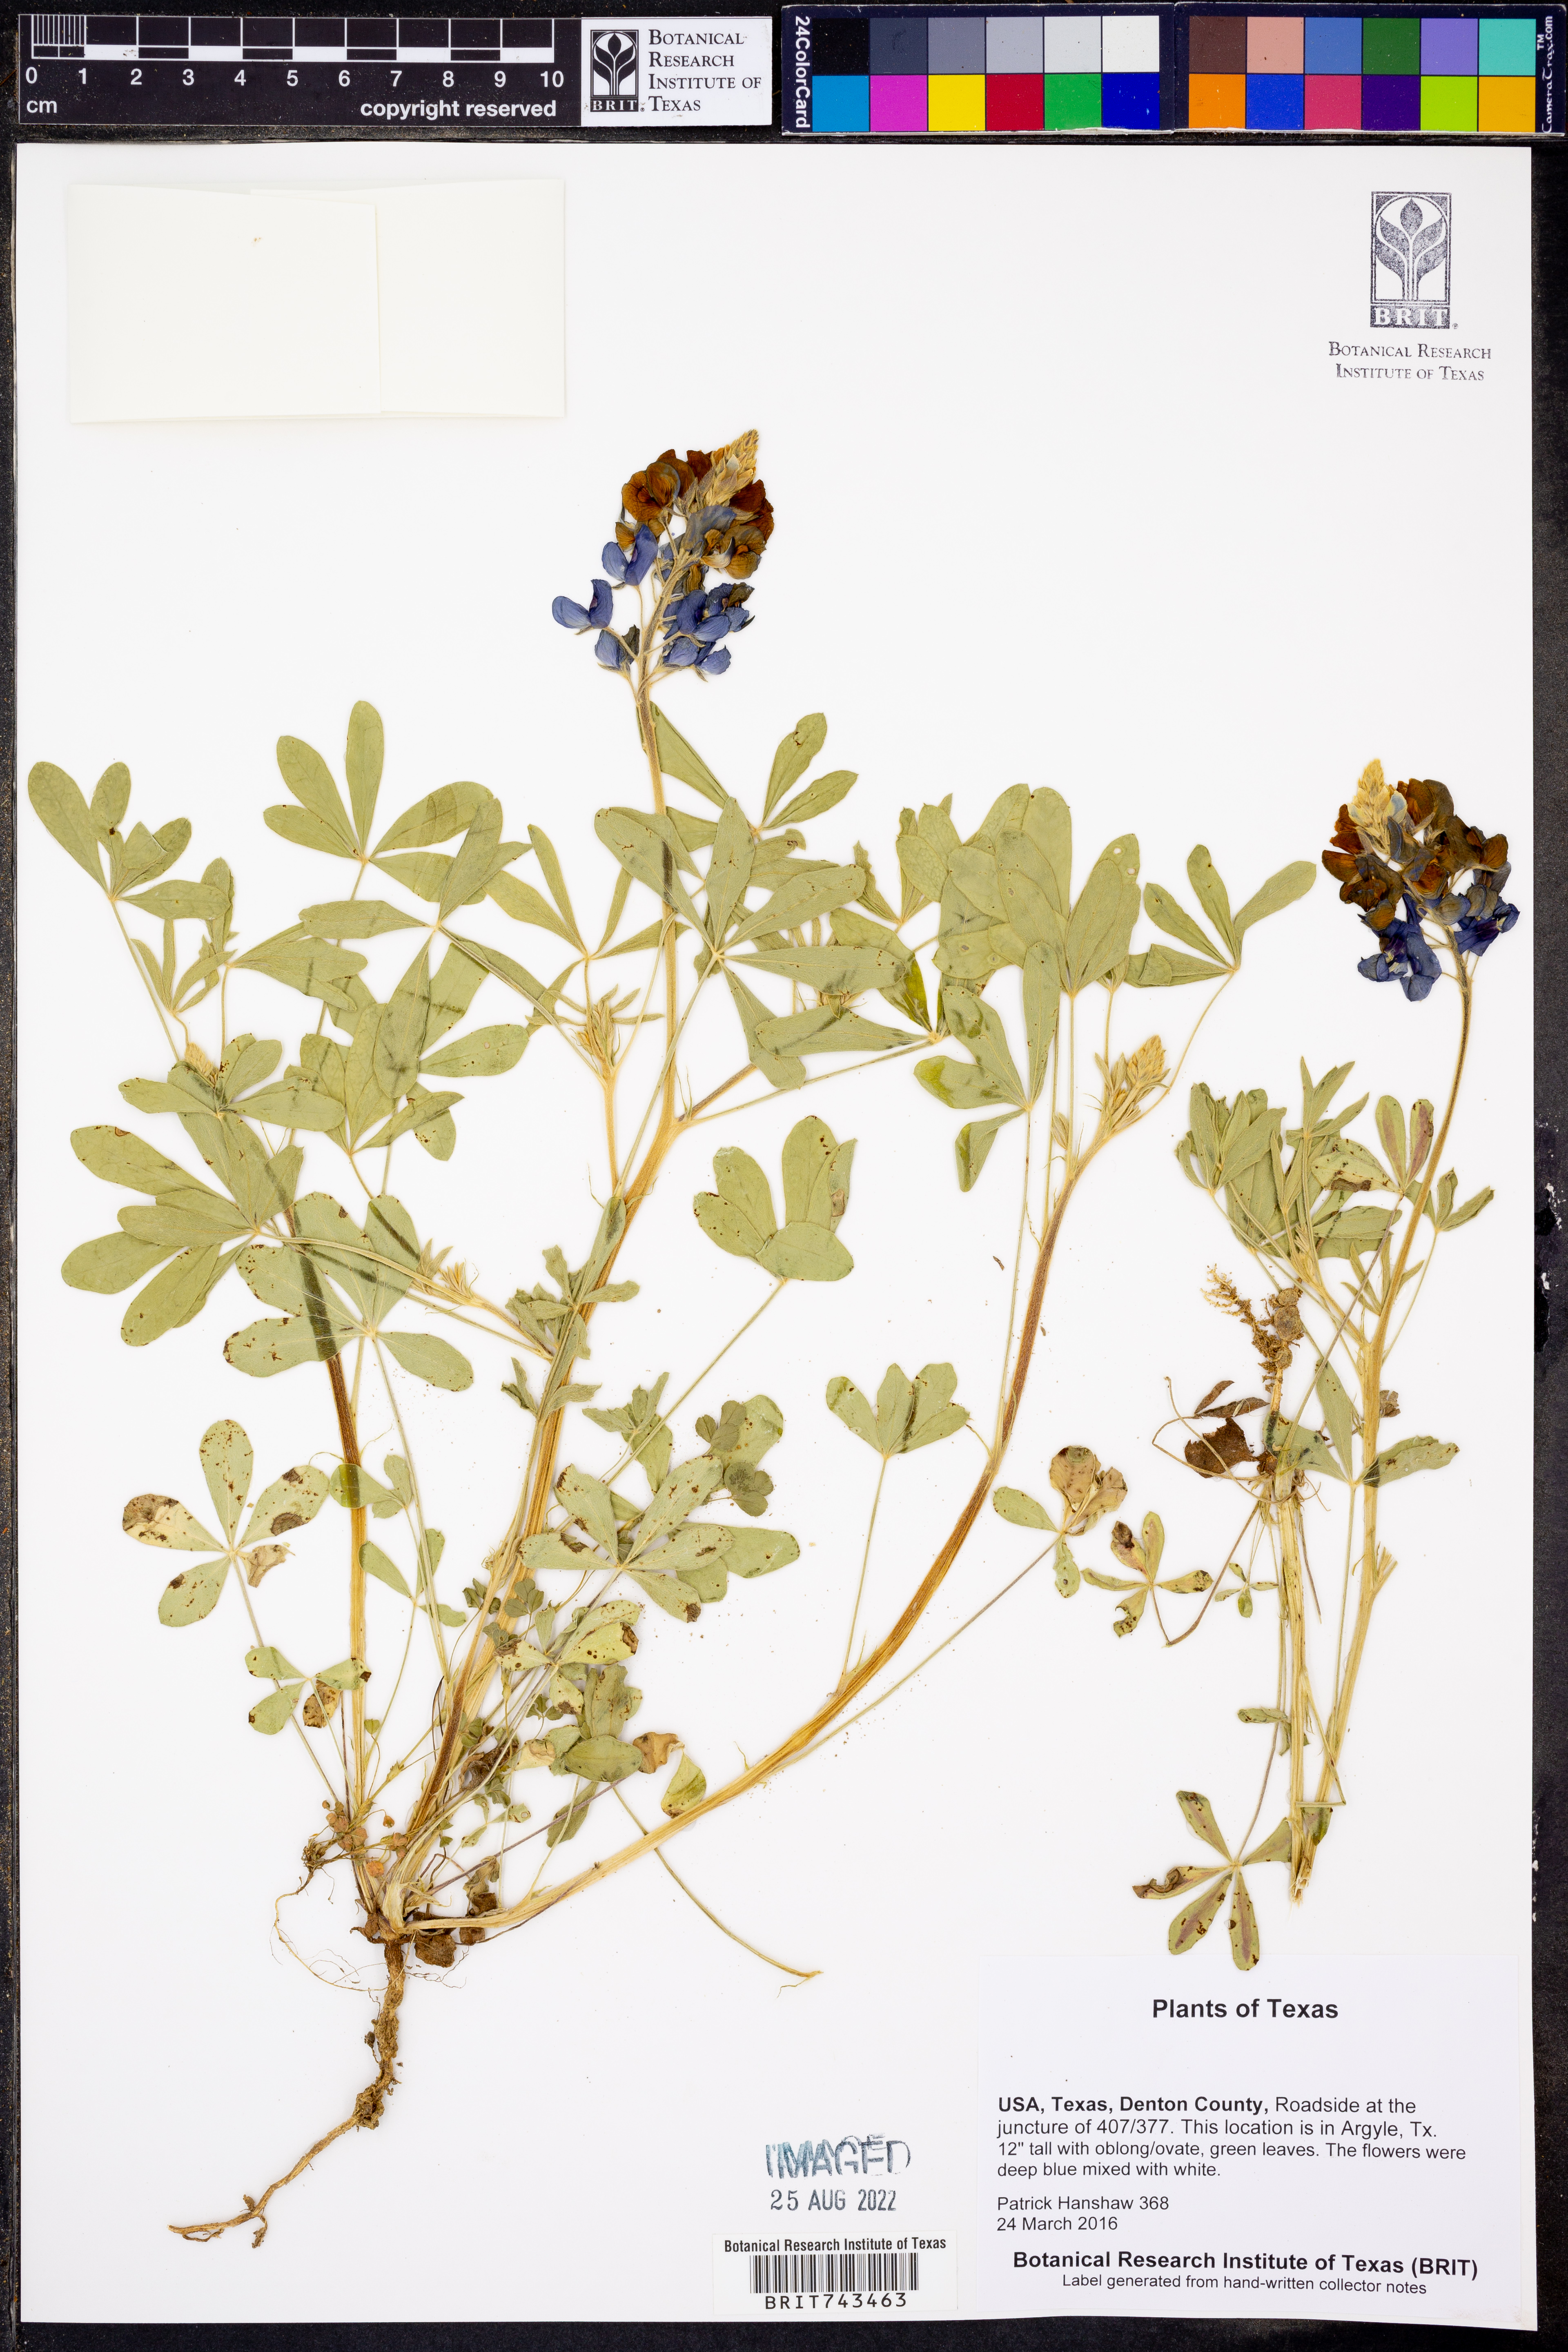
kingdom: Plantae
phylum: Tracheophyta
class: Magnoliopsida
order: Fabales
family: Fabaceae
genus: Lupinus
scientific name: Lupinus texensis
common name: Texas bluebonnet
